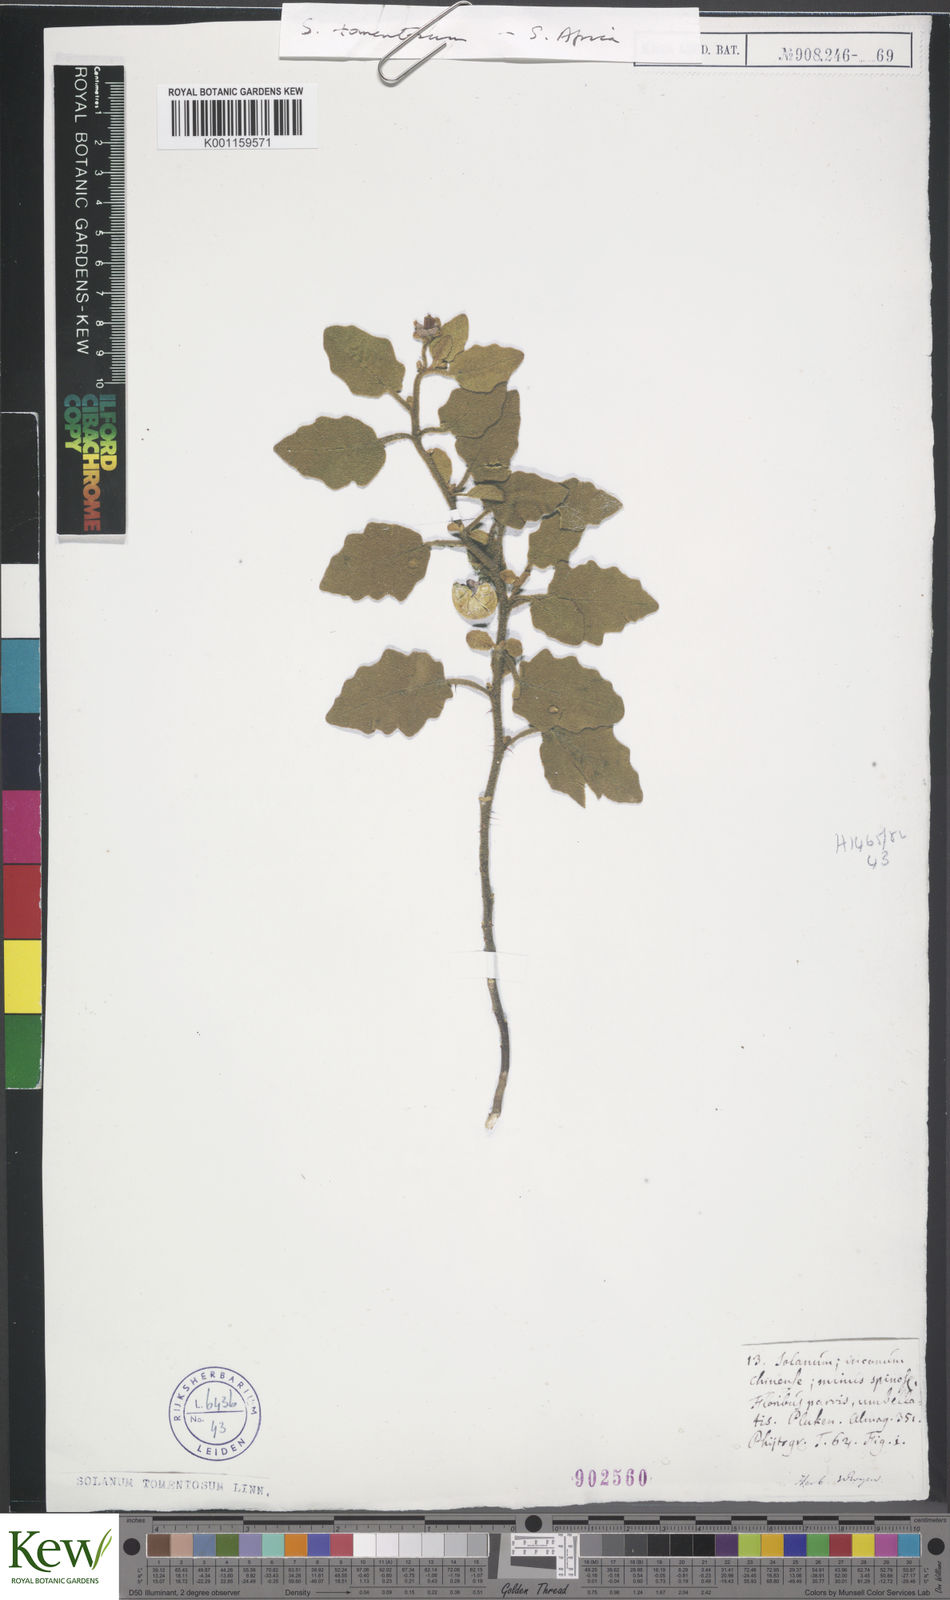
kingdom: Plantae
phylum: Tracheophyta
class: Magnoliopsida
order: Solanales
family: Solanaceae
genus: Solanum
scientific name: Solanum tomentosum
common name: Wild aubergine
